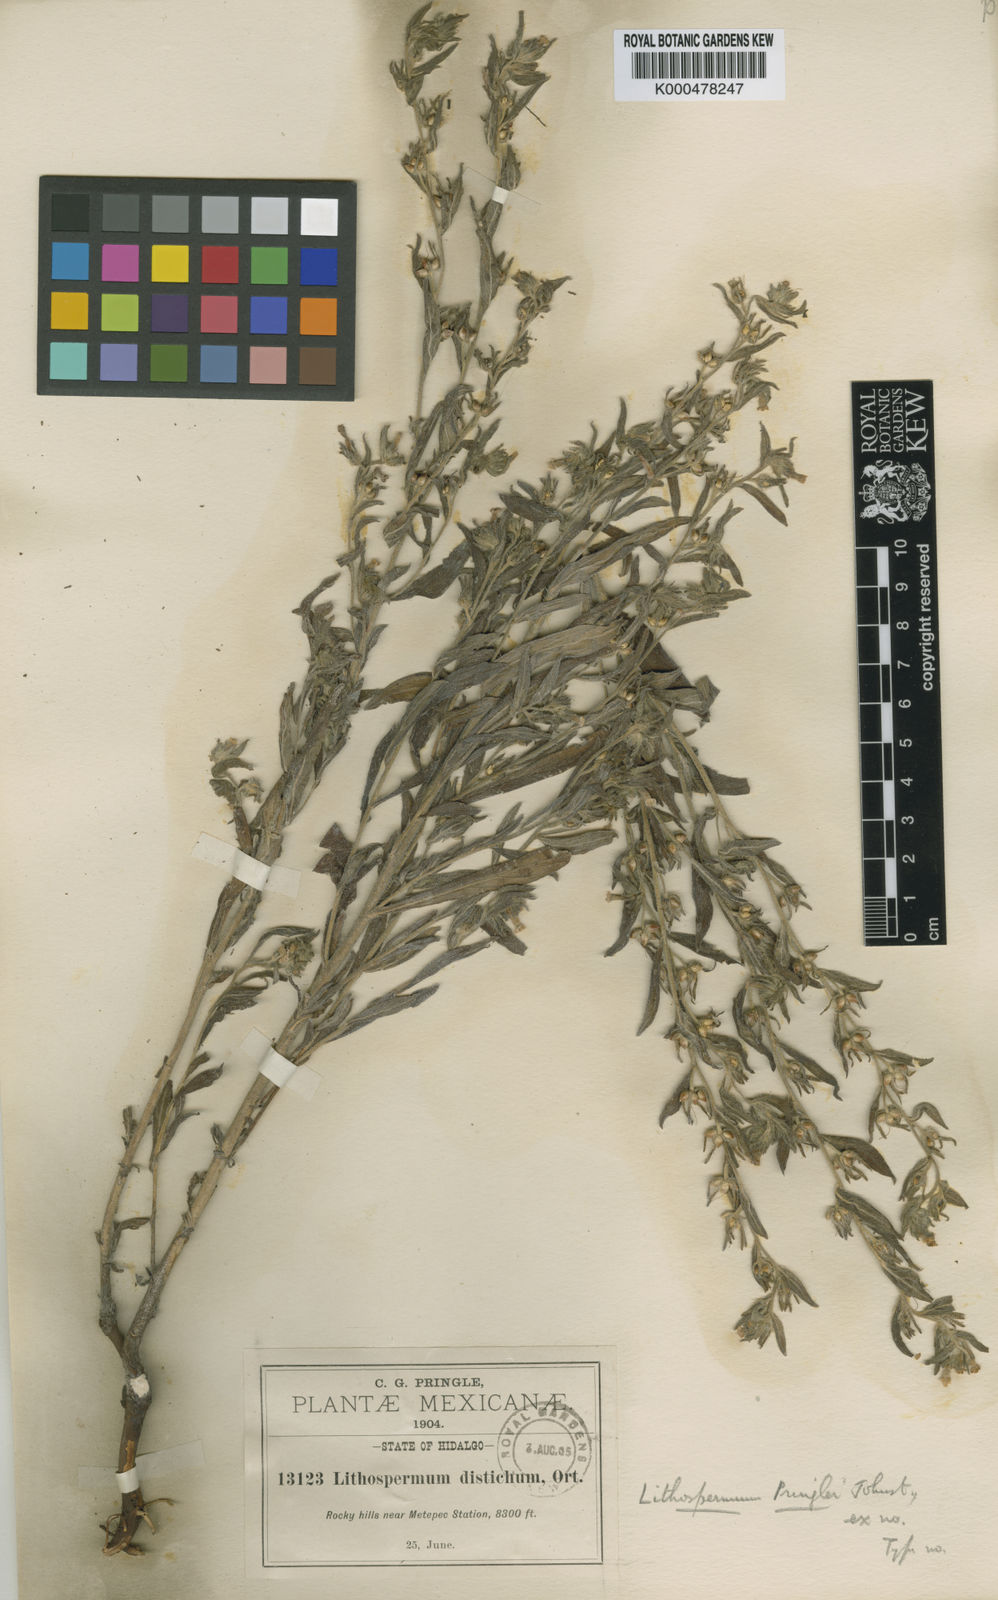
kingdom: Plantae
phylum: Tracheophyta
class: Magnoliopsida
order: Boraginales
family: Boraginaceae
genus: Lithospermum
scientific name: Lithospermum pringlei
